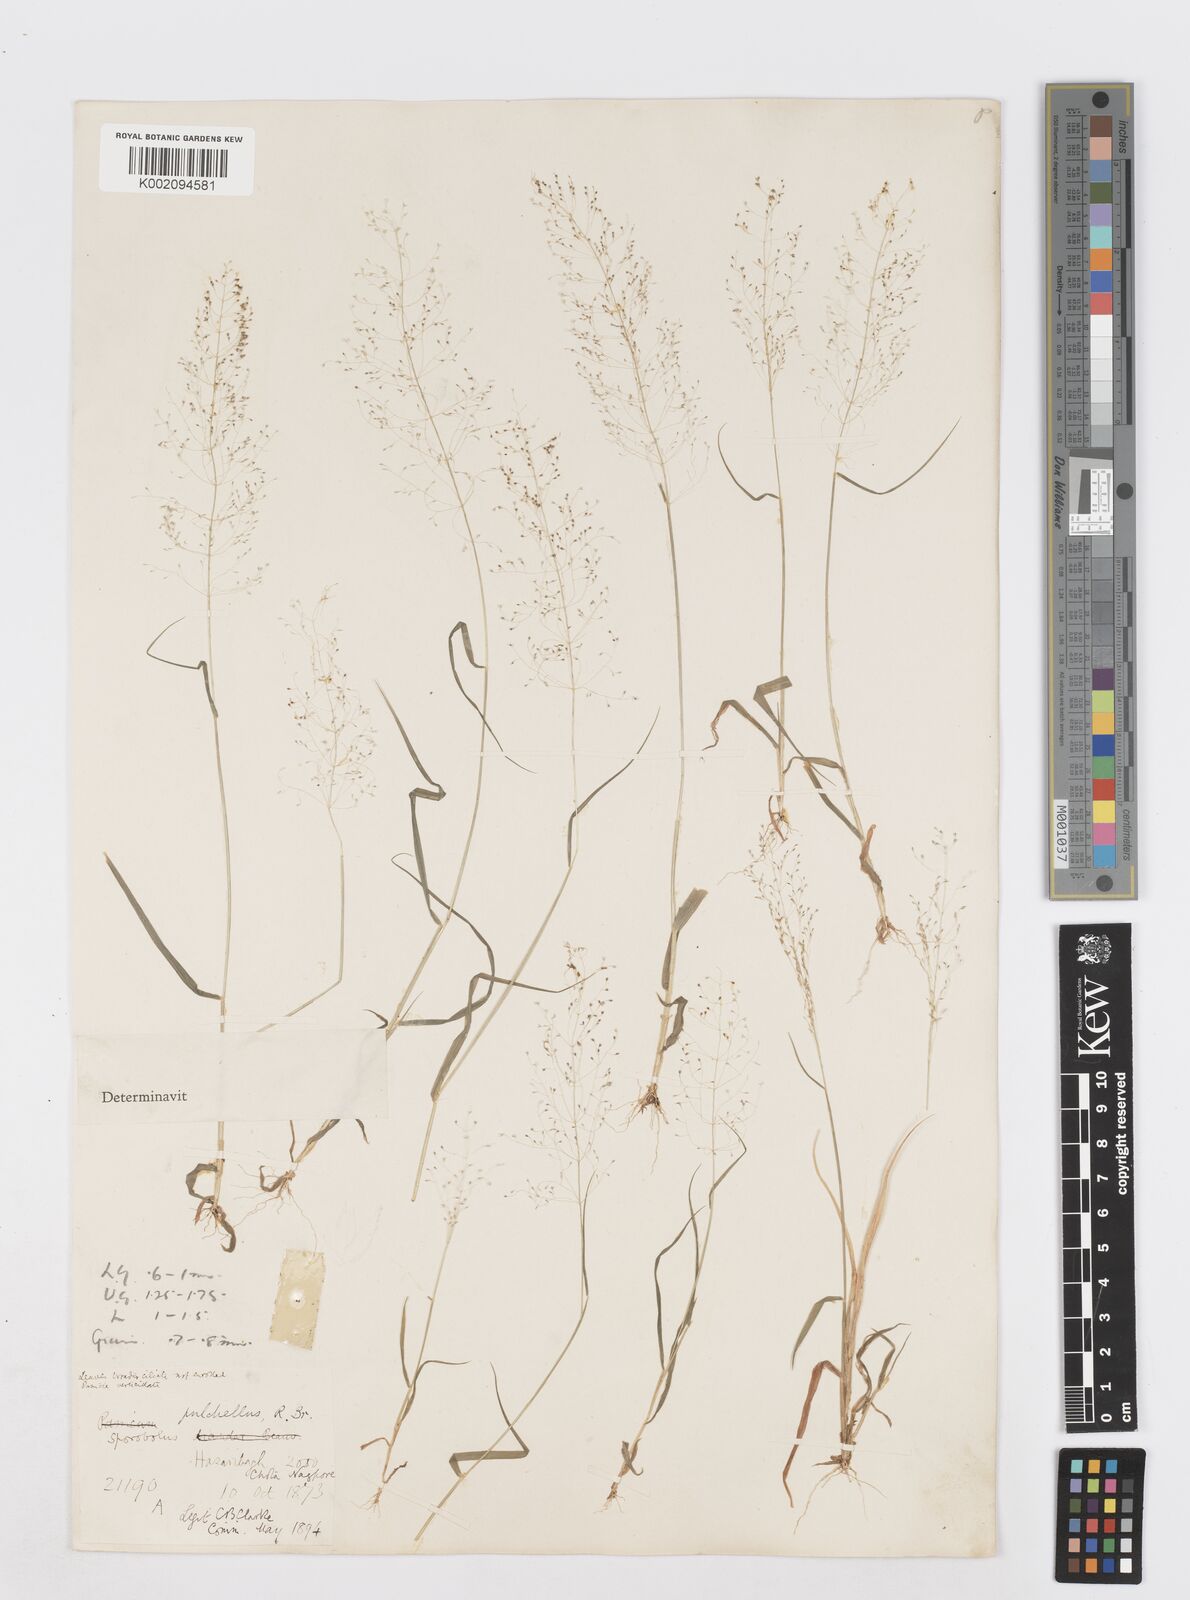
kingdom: Plantae
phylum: Tracheophyta
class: Liliopsida
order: Poales
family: Poaceae
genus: Sporobolus
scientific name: Sporobolus tetragonus
